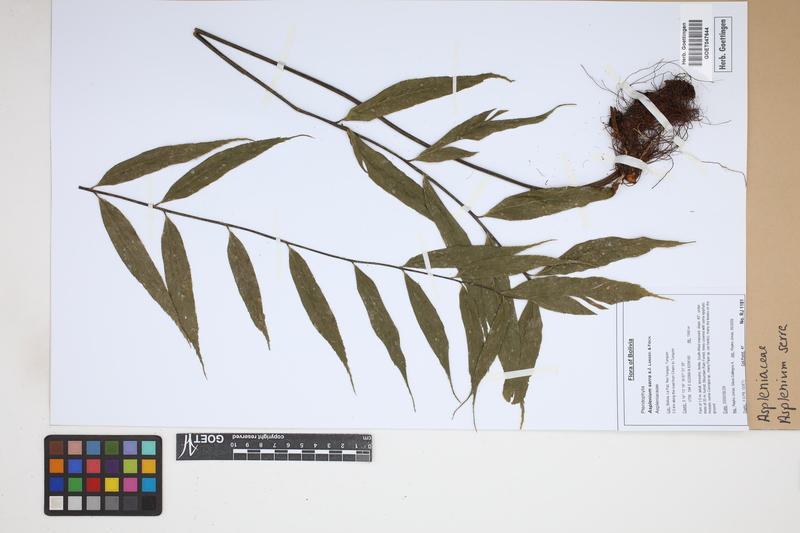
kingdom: Plantae
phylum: Tracheophyta
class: Polypodiopsida
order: Polypodiales
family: Aspleniaceae
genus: Asplenium
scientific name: Asplenium serra
